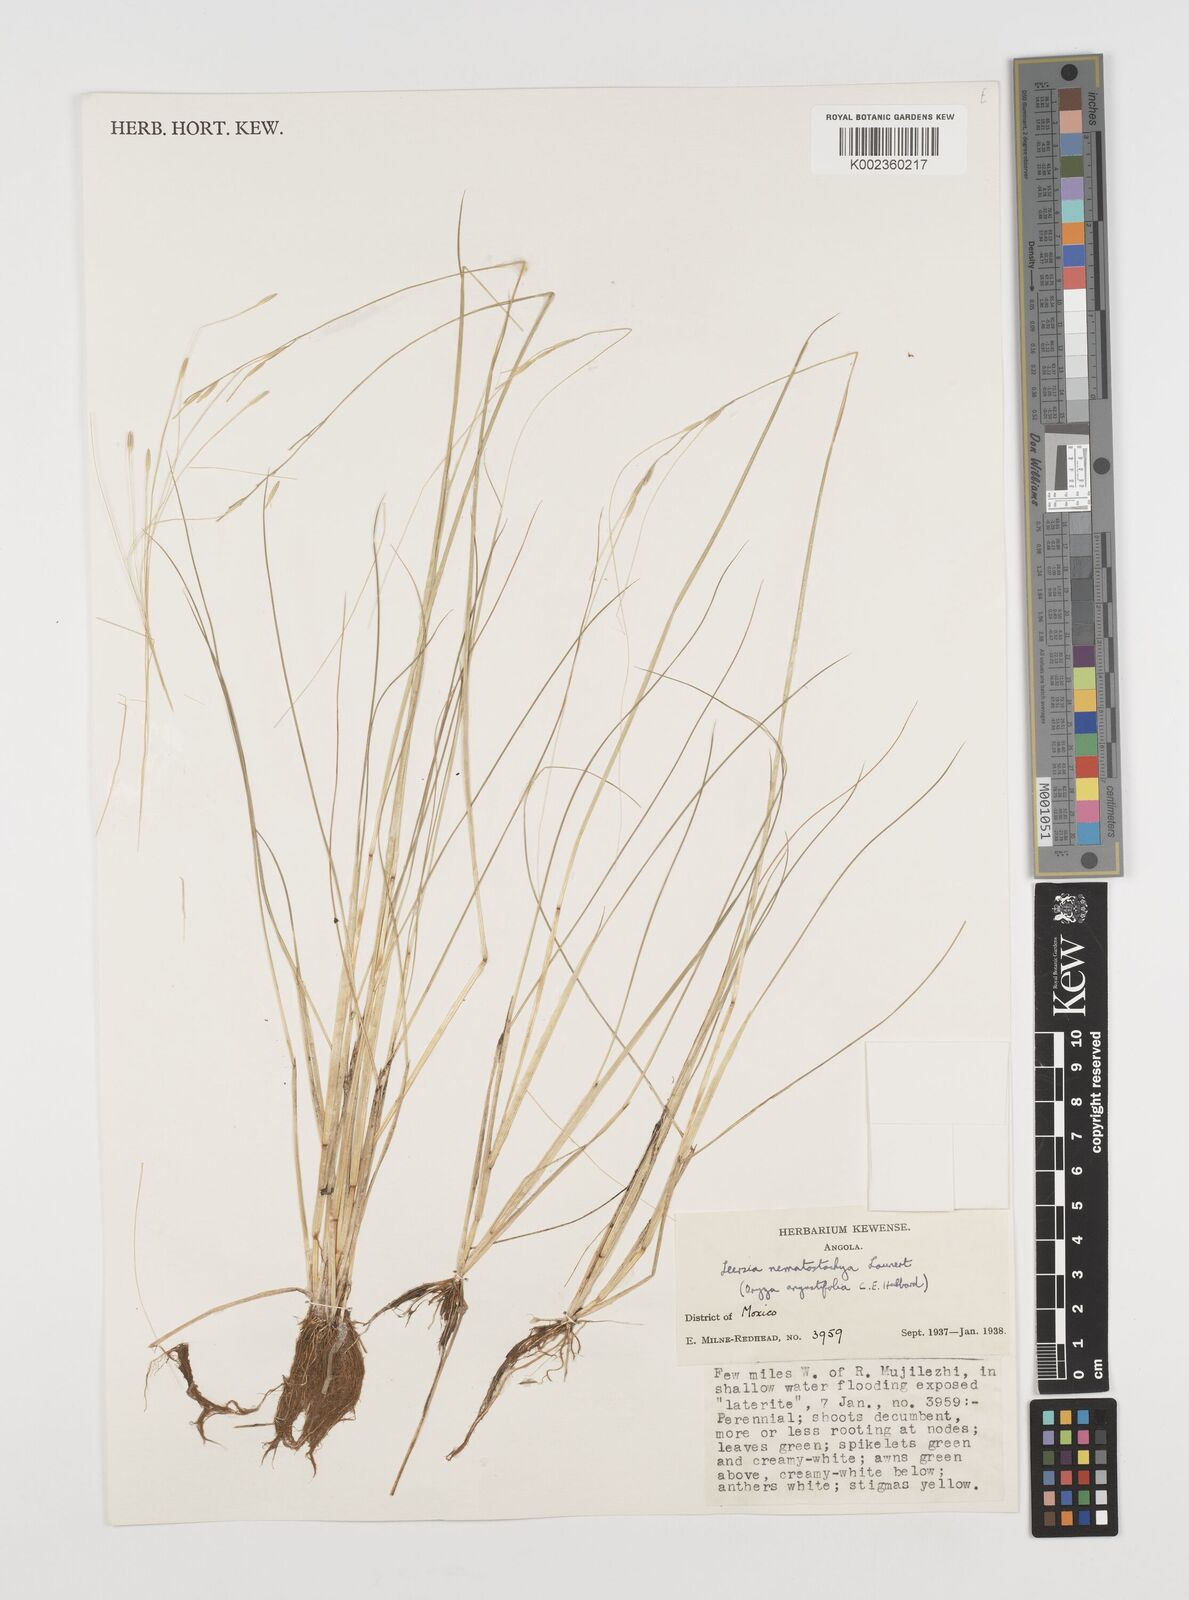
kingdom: Plantae
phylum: Tracheophyta
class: Liliopsida
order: Poales
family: Poaceae
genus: Leersia
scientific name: Leersia nematostachya
